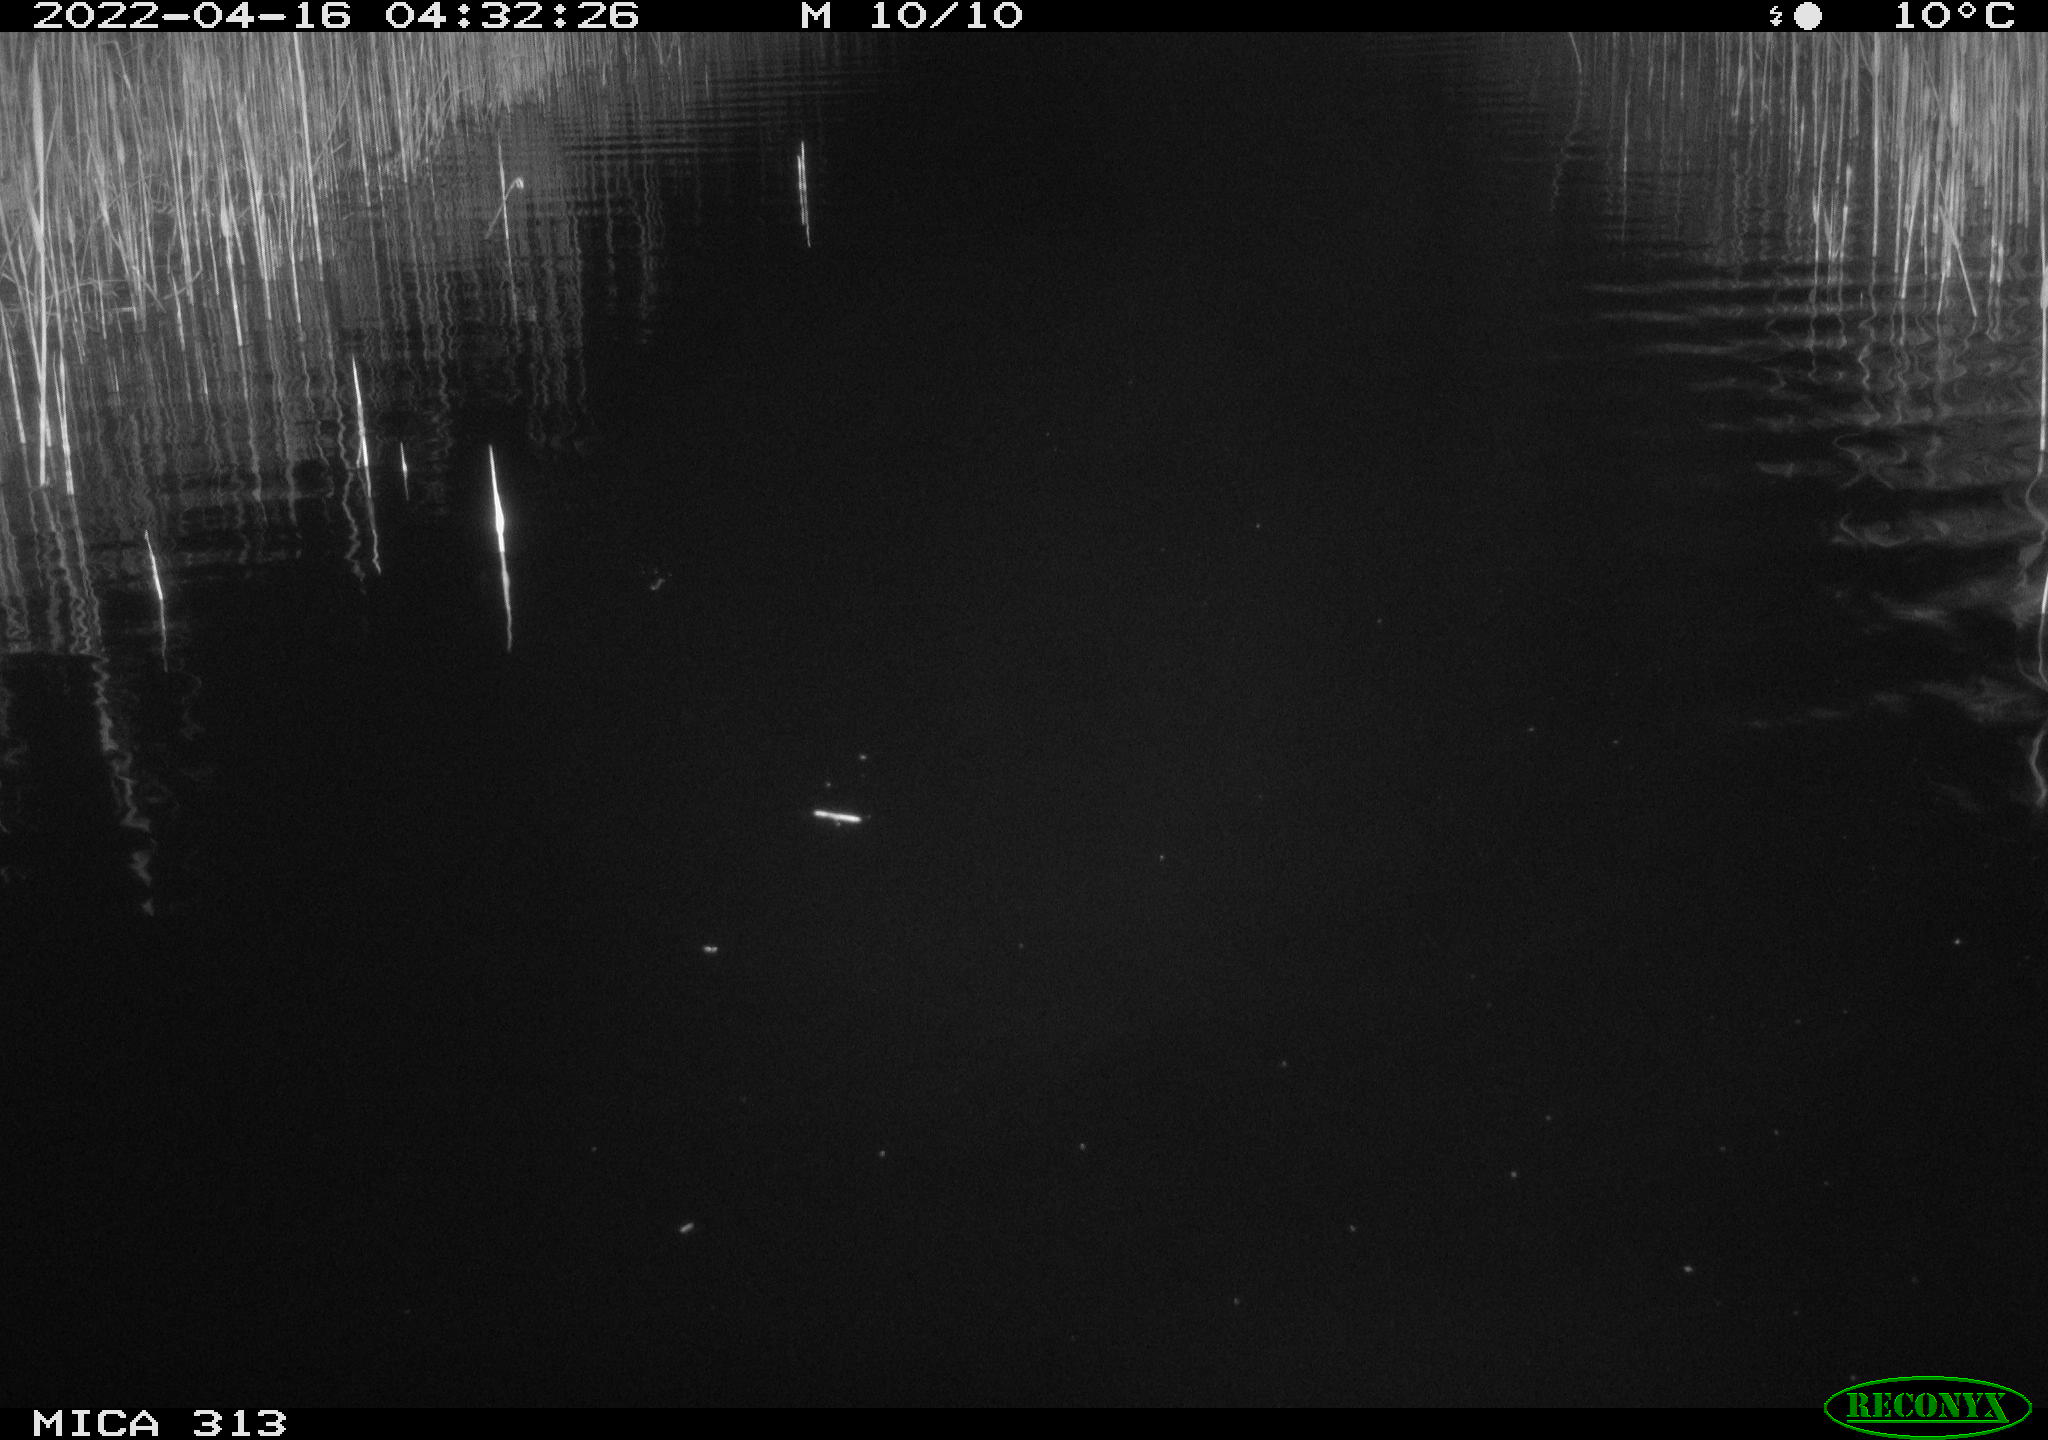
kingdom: Animalia
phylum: Chordata
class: Mammalia
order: Rodentia
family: Cricetidae
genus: Ondatra
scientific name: Ondatra zibethicus
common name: Muskrat
